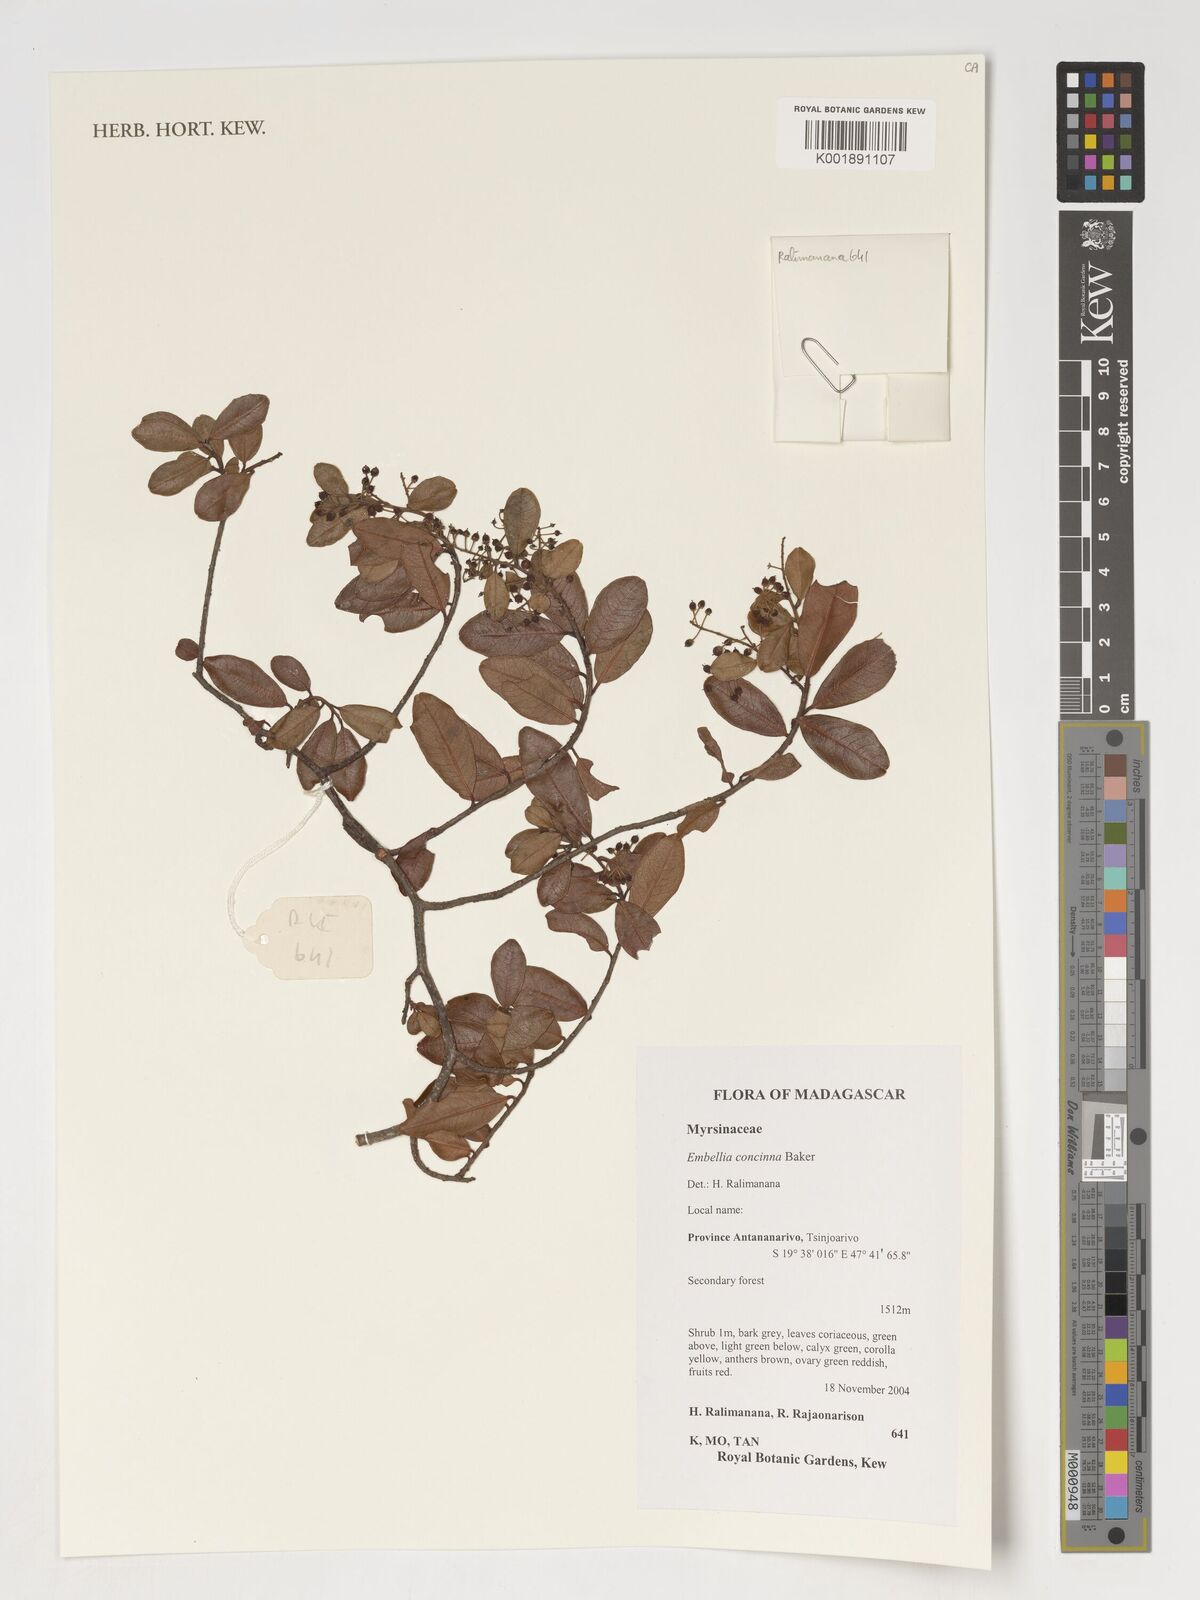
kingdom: Plantae
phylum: Tracheophyta
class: Magnoliopsida
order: Ericales
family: Primulaceae
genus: Embelia
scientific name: Embelia concinna
